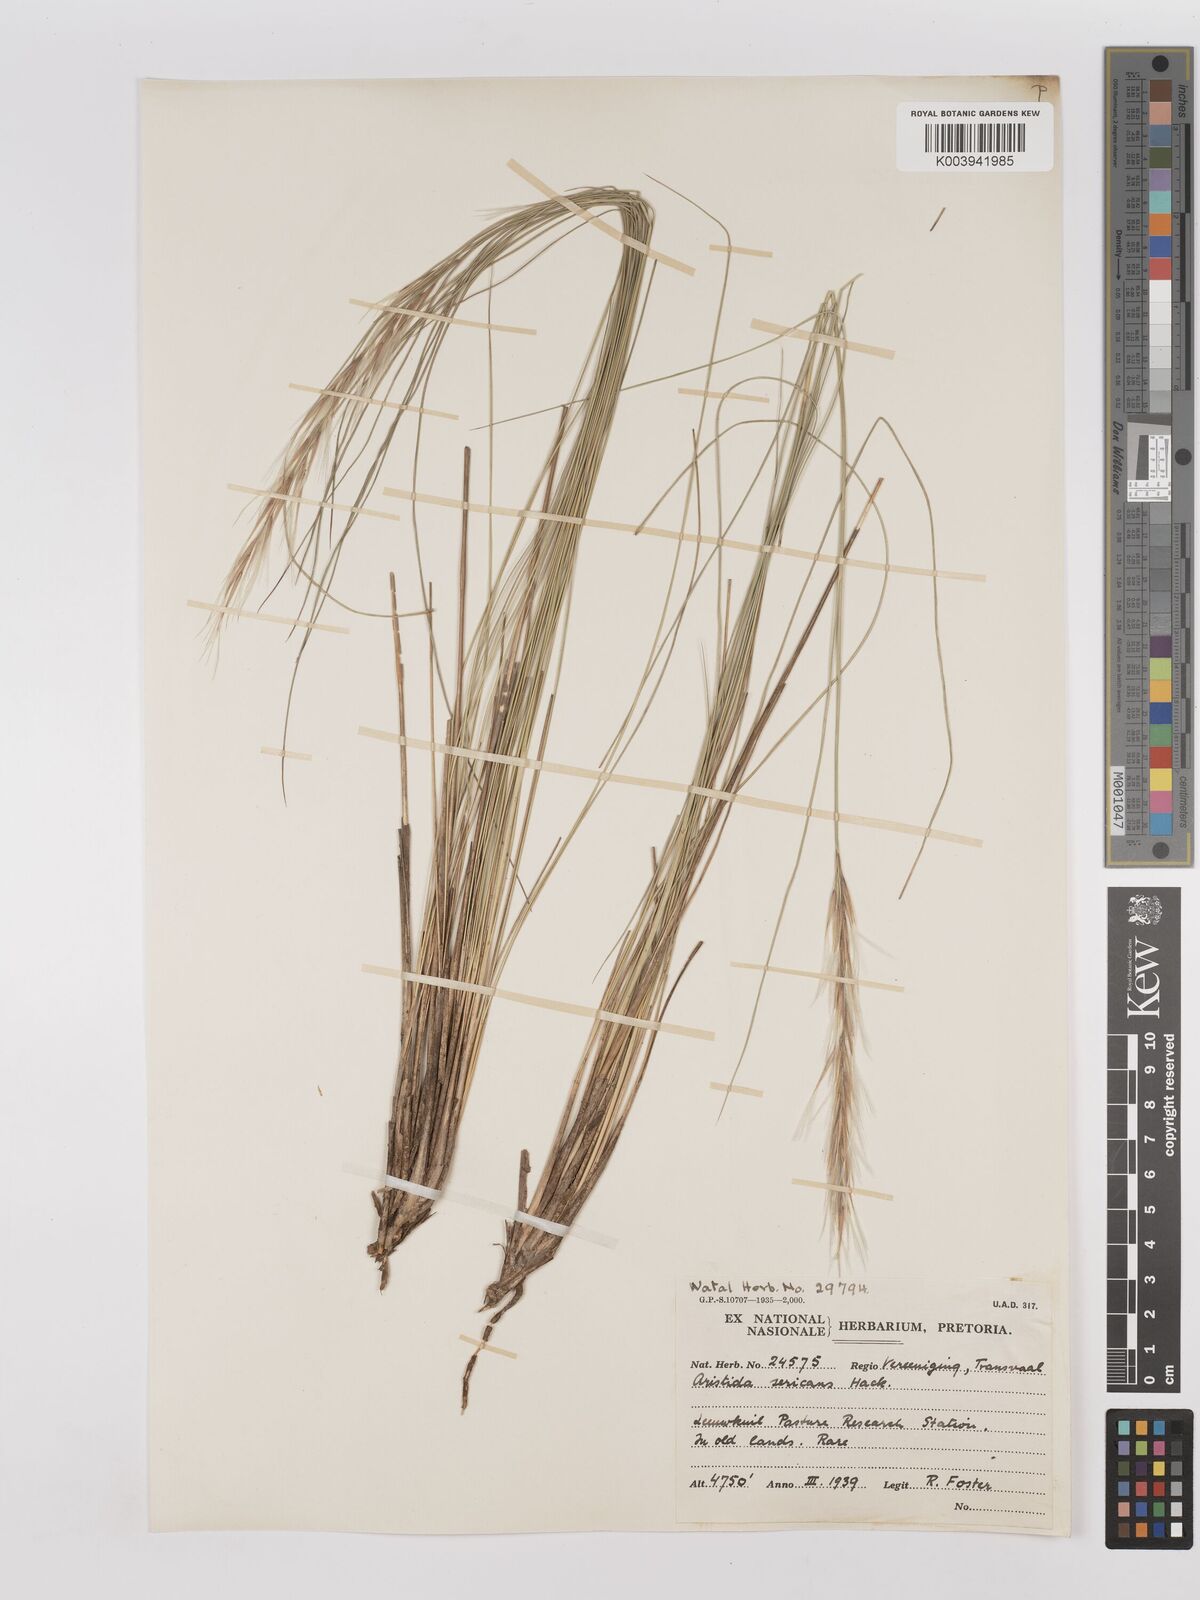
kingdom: Plantae
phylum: Tracheophyta
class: Liliopsida
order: Poales
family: Poaceae
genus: Stipagrostis
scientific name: Stipagrostis zeyheri
